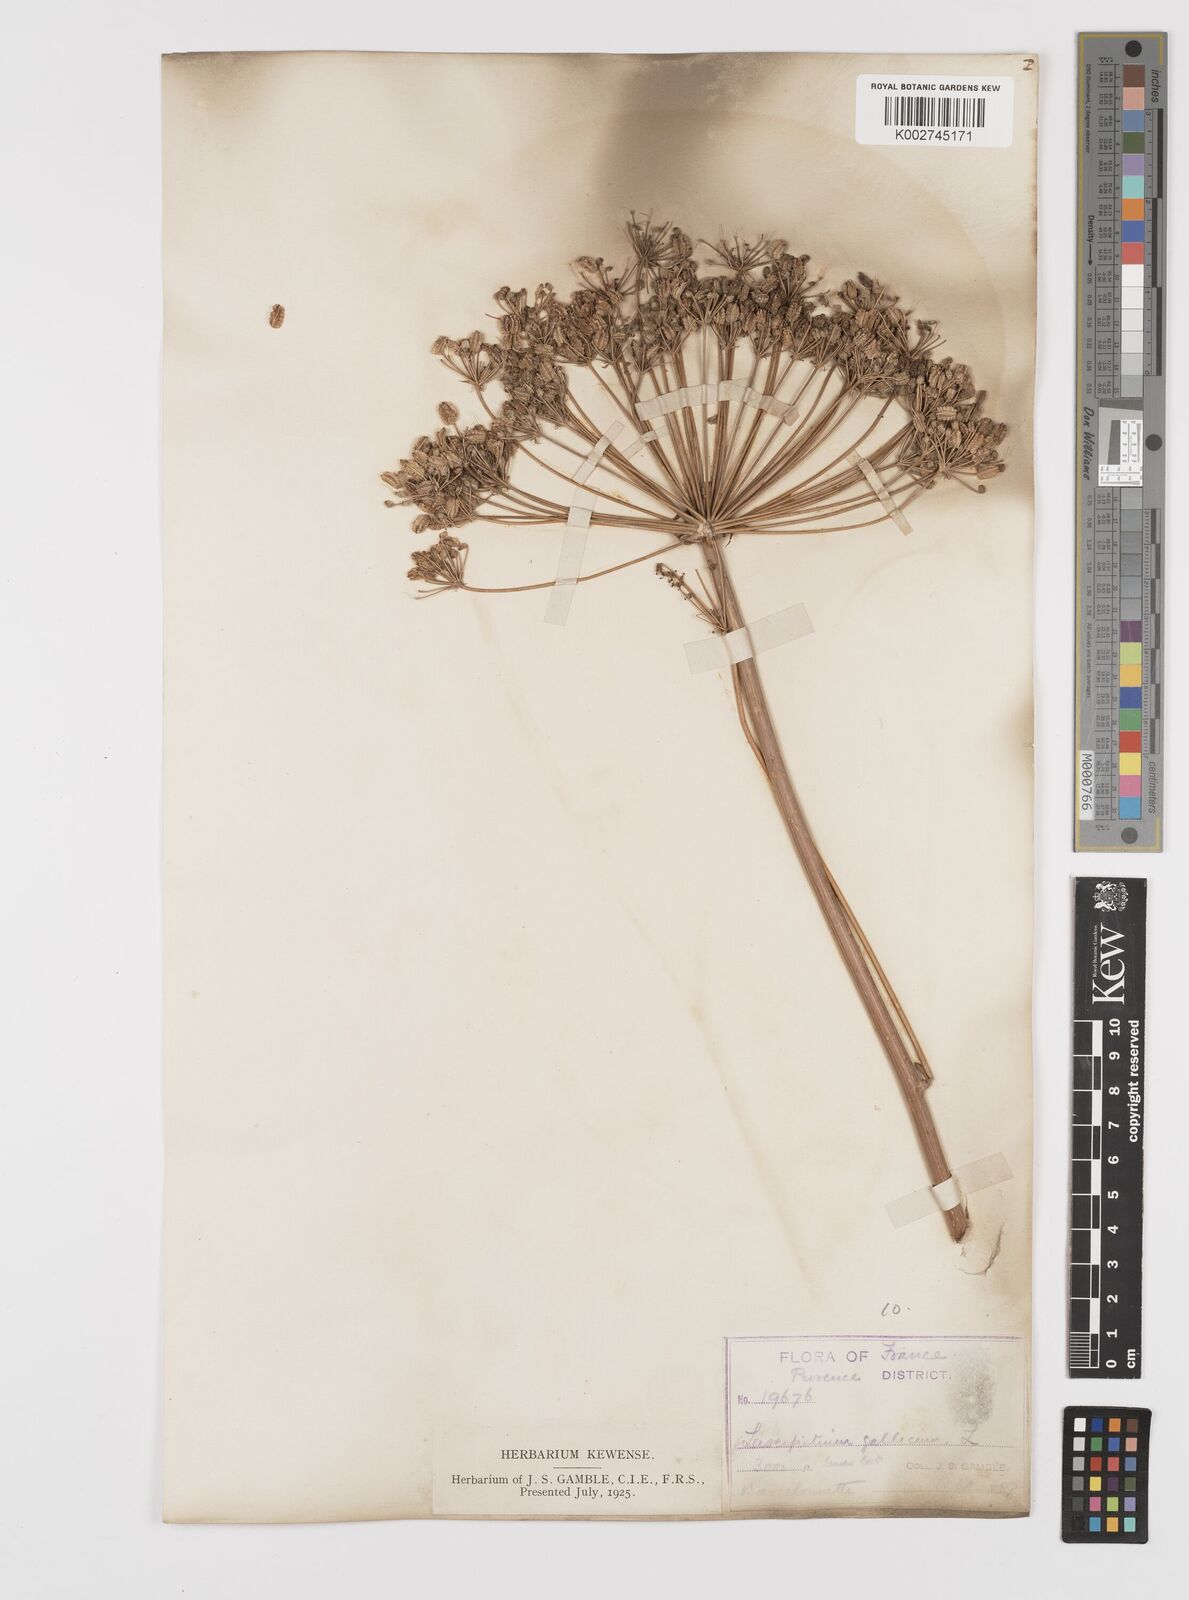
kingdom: Plantae
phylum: Tracheophyta
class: Magnoliopsida
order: Apiales
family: Apiaceae
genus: Laserpitium
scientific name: Laserpitium gallicum
